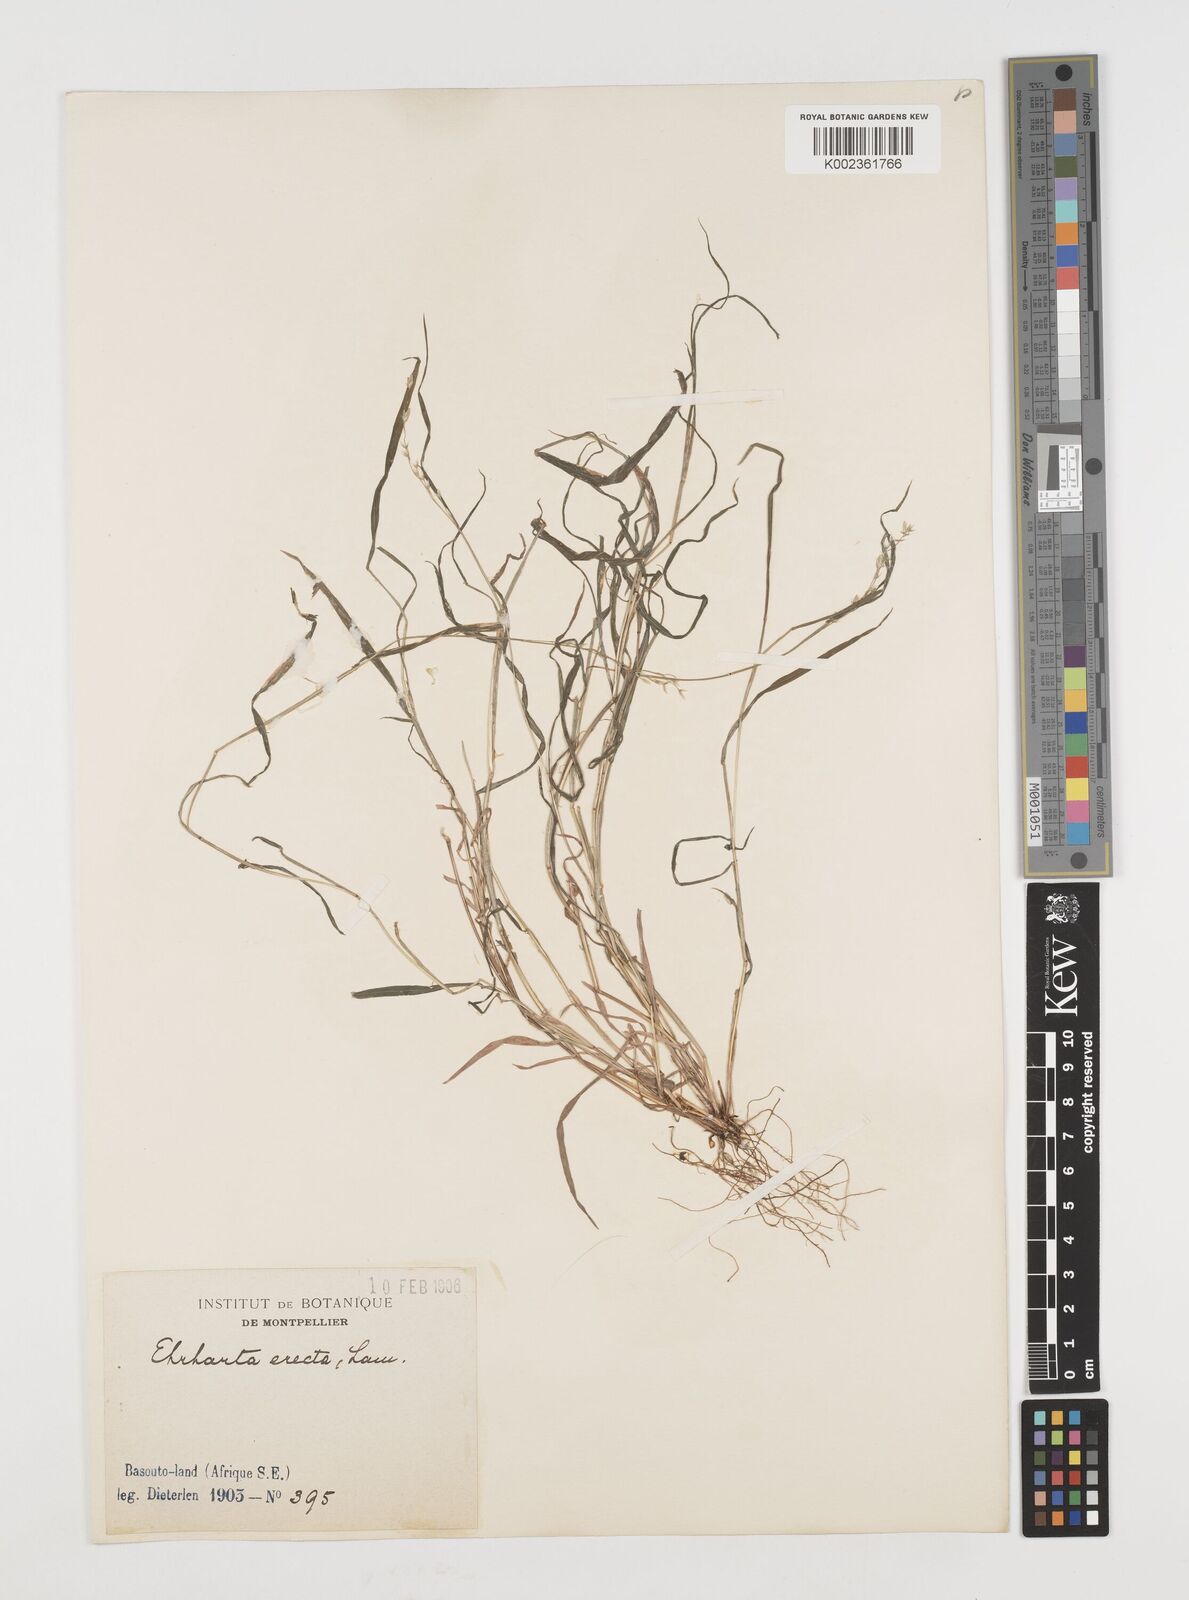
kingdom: Plantae
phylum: Tracheophyta
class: Liliopsida
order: Poales
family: Poaceae
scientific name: Poaceae
